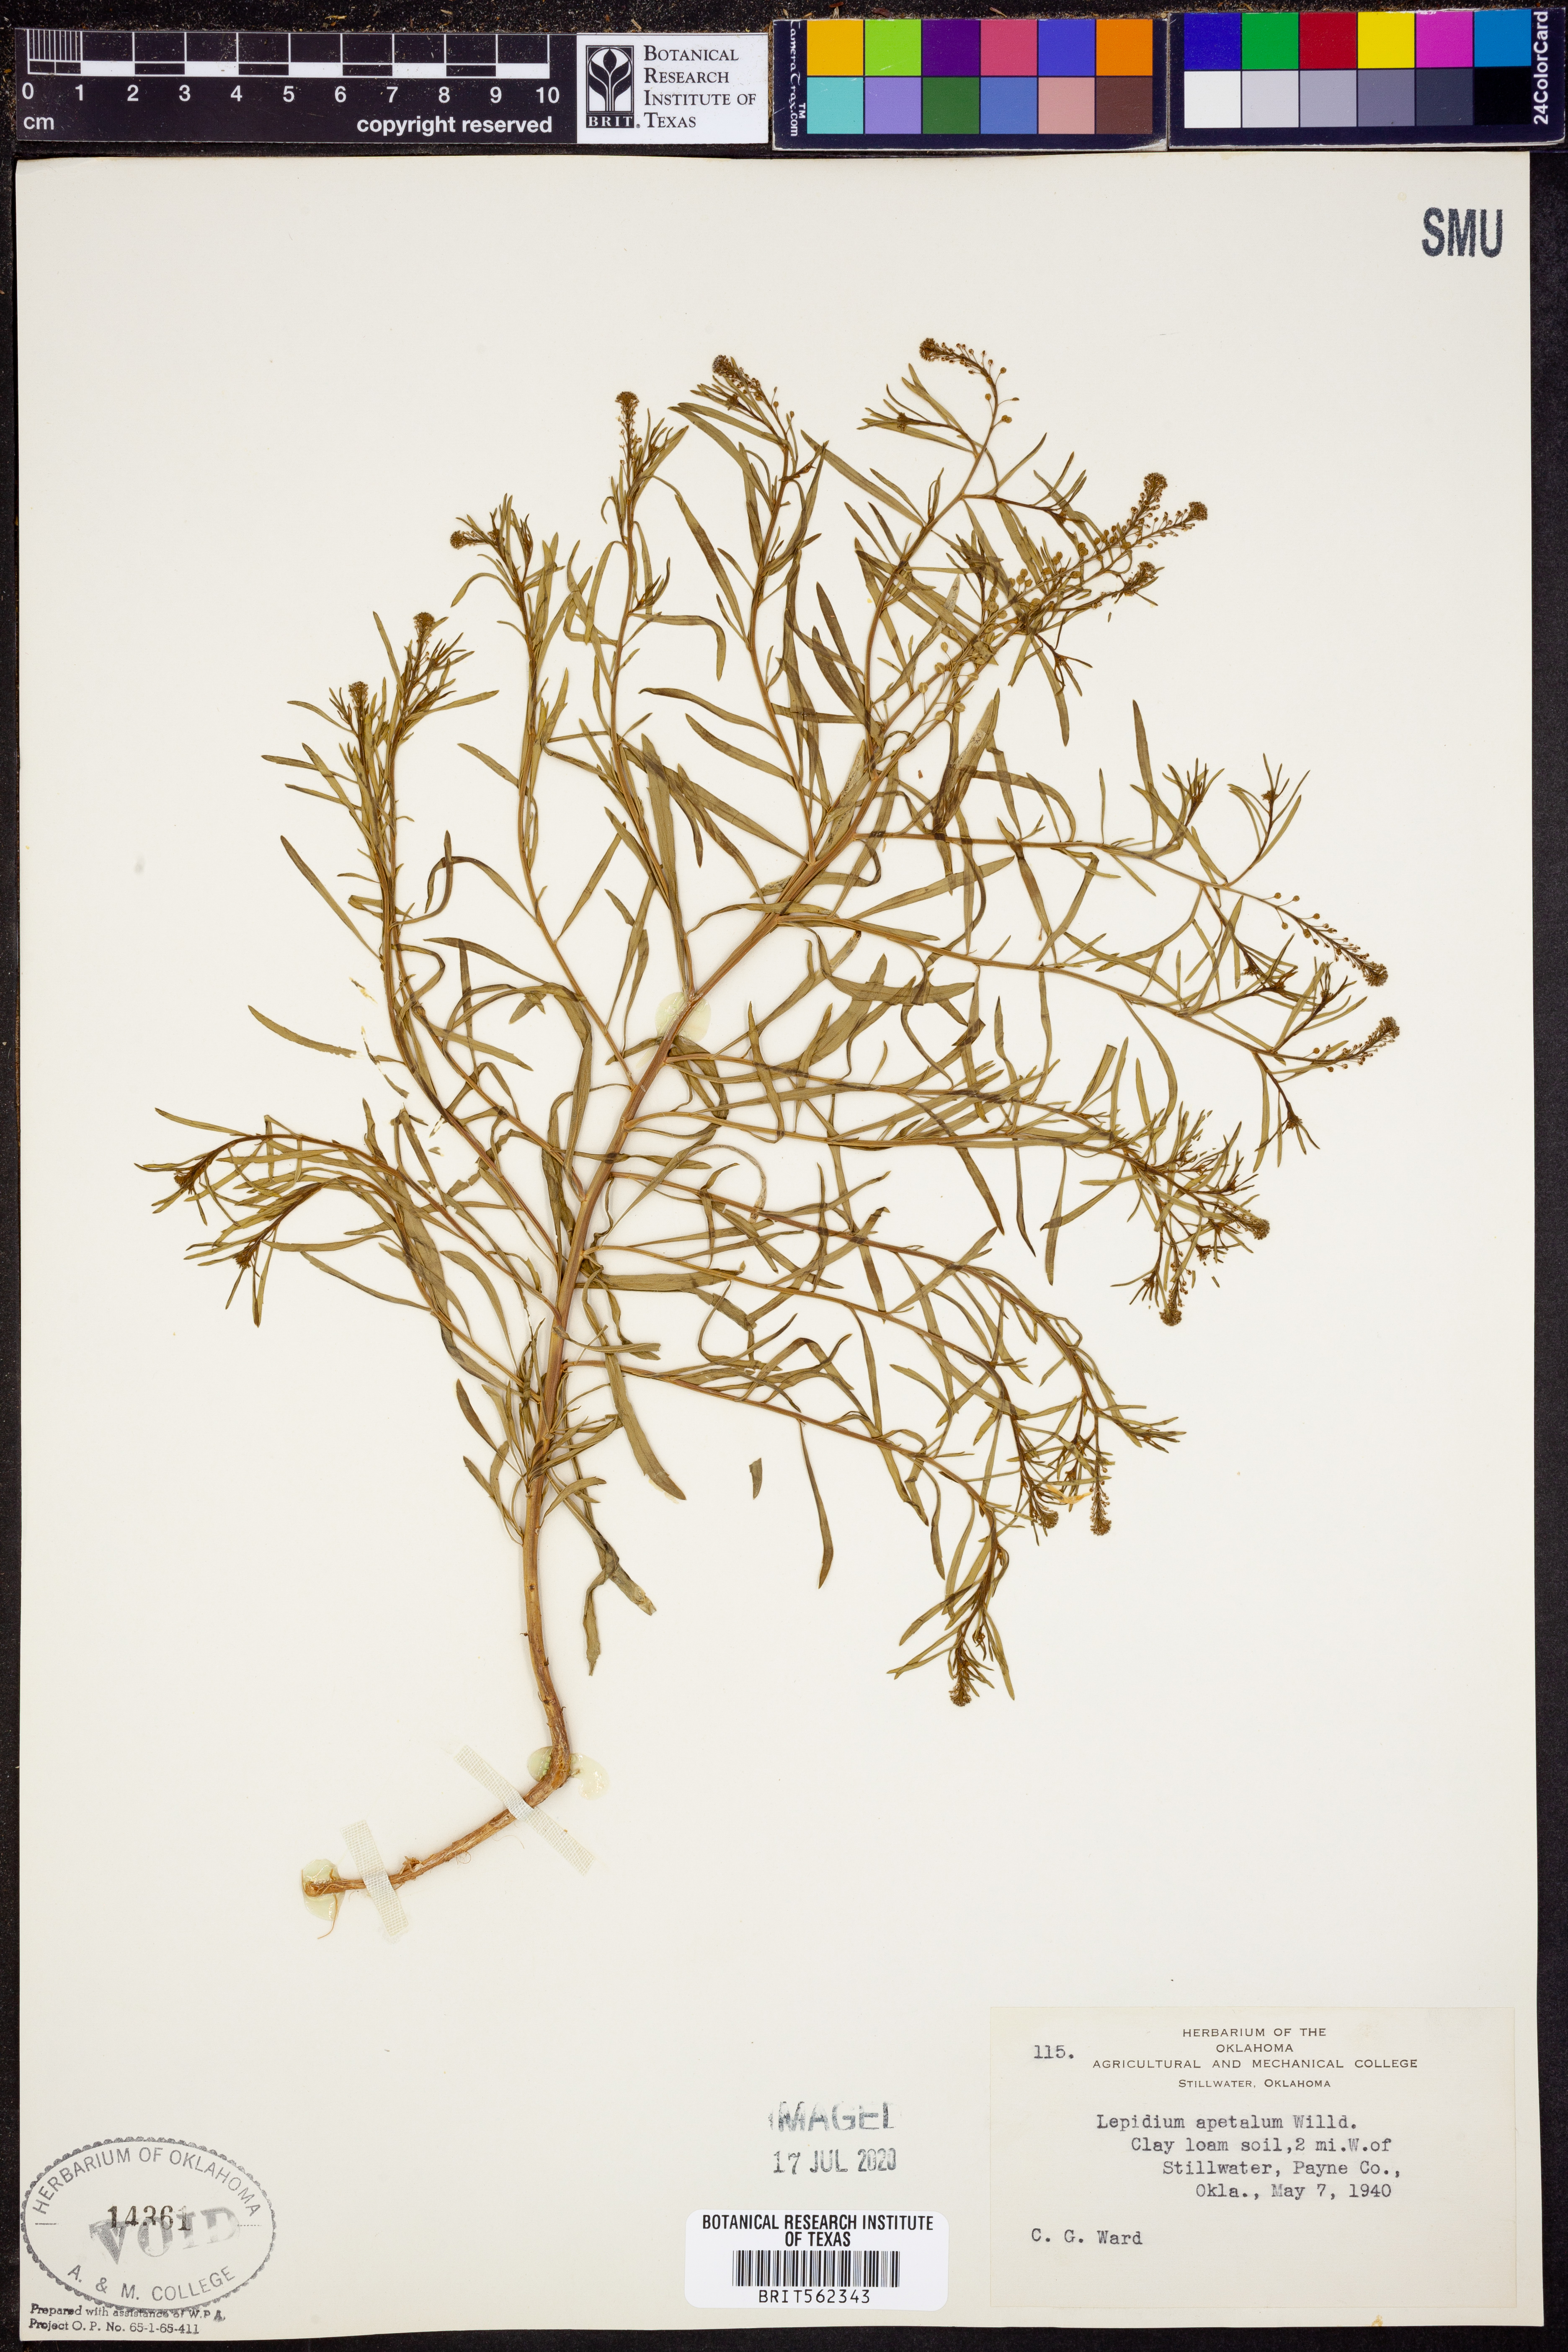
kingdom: Plantae
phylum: Tracheophyta
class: Magnoliopsida
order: Brassicales
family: Brassicaceae
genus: Lepidium
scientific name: Lepidium apetalum
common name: Pepperweed
